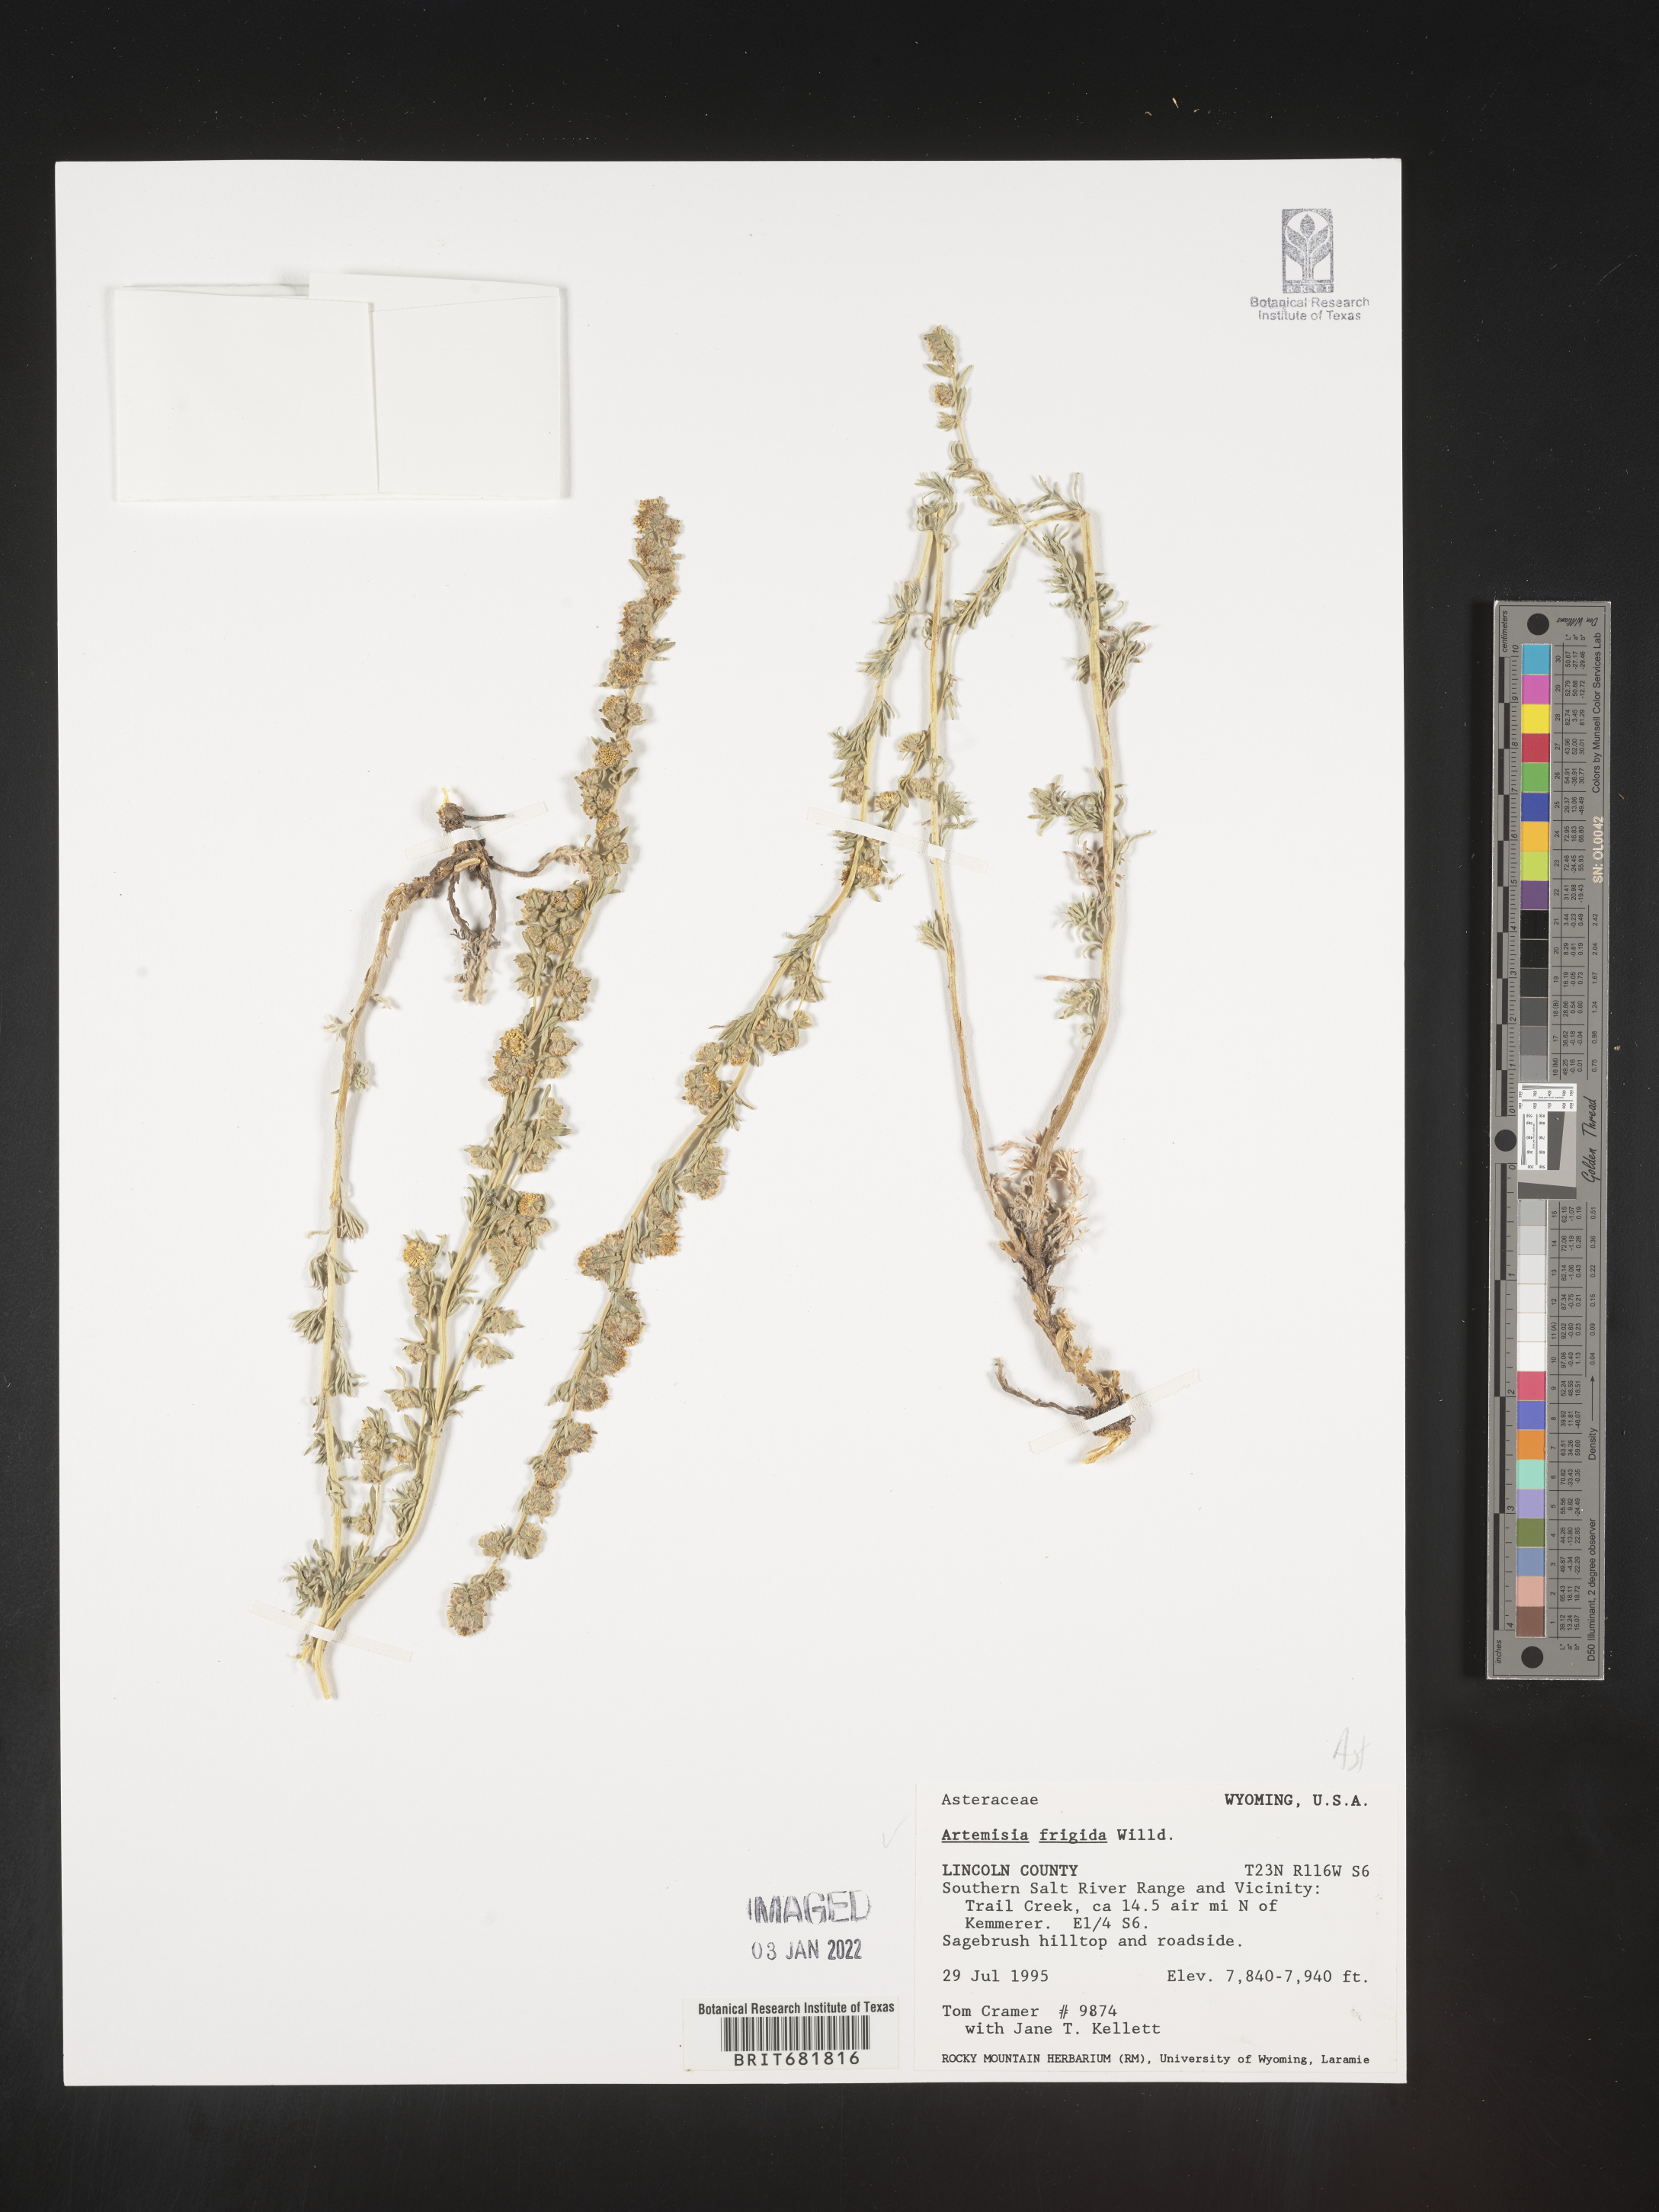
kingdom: Plantae
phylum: Tracheophyta
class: Magnoliopsida
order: Asterales
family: Asteraceae
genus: Artemisia
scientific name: Artemisia frigida
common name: Prairie sagewort
